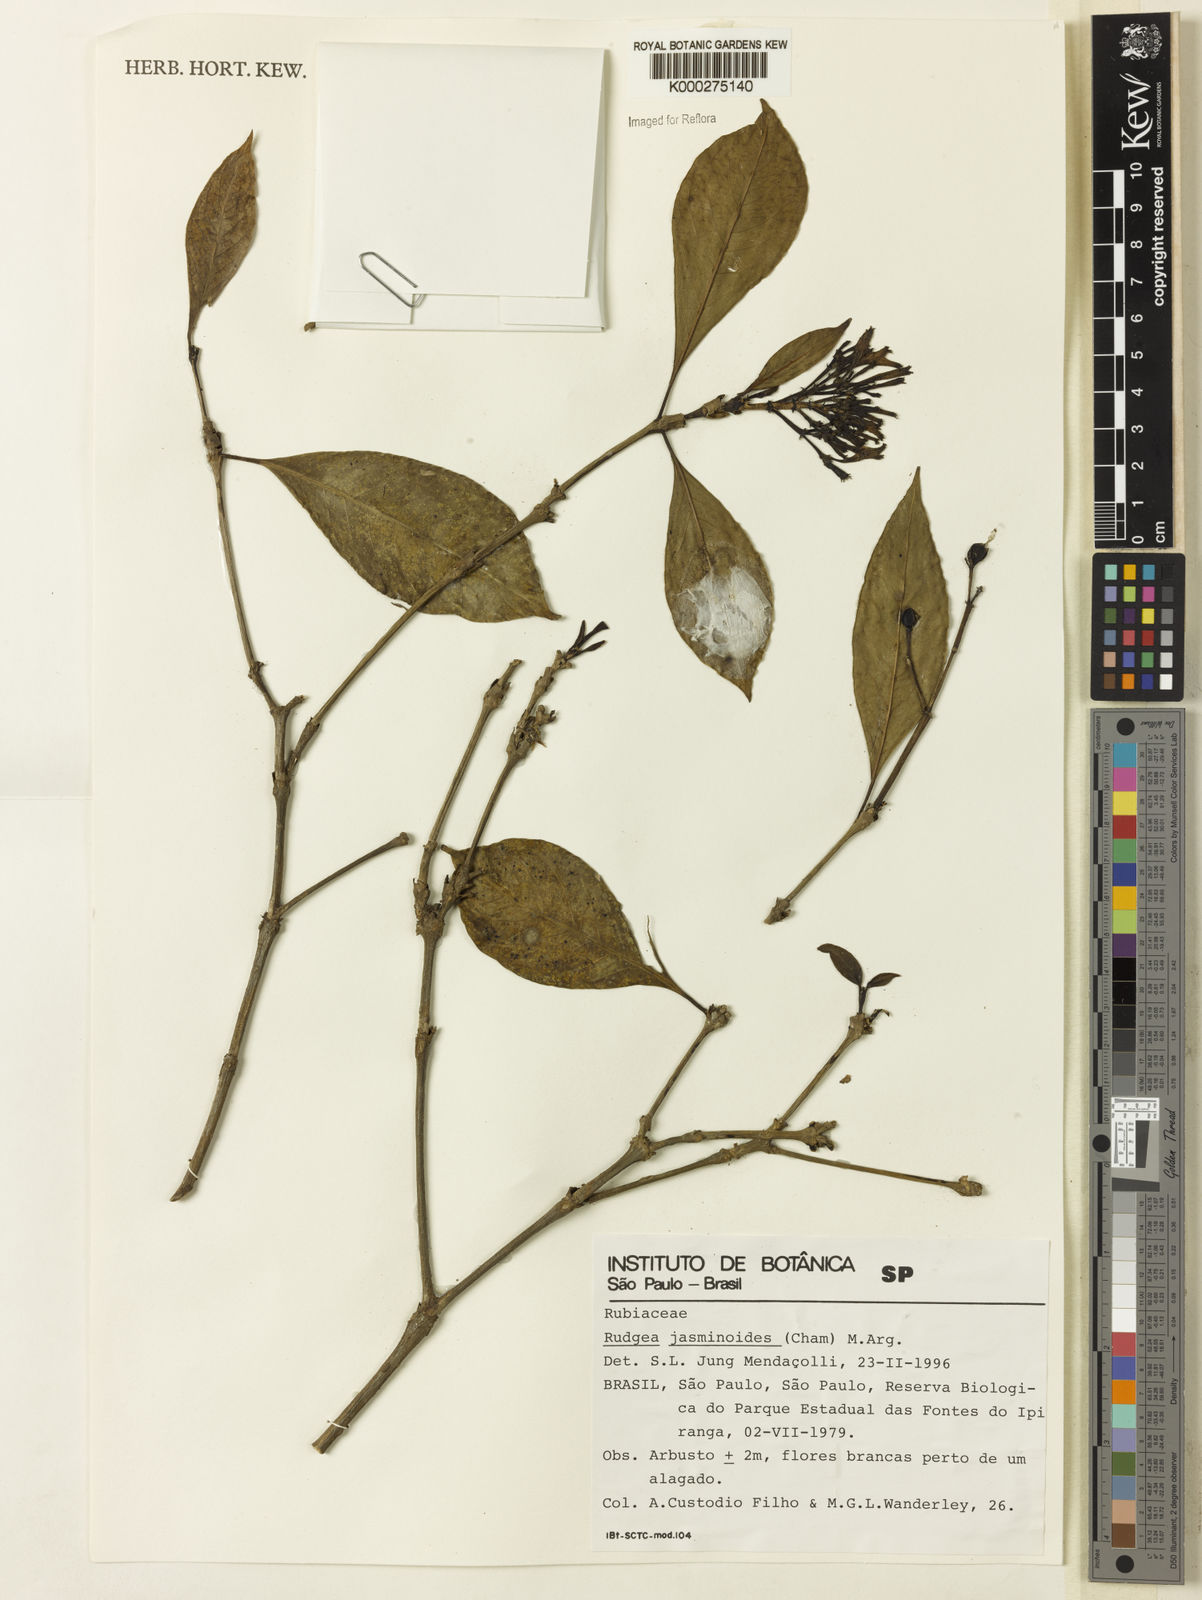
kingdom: Plantae
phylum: Tracheophyta
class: Magnoliopsida
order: Gentianales
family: Rubiaceae
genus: Rudgea
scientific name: Rudgea jasminoides
